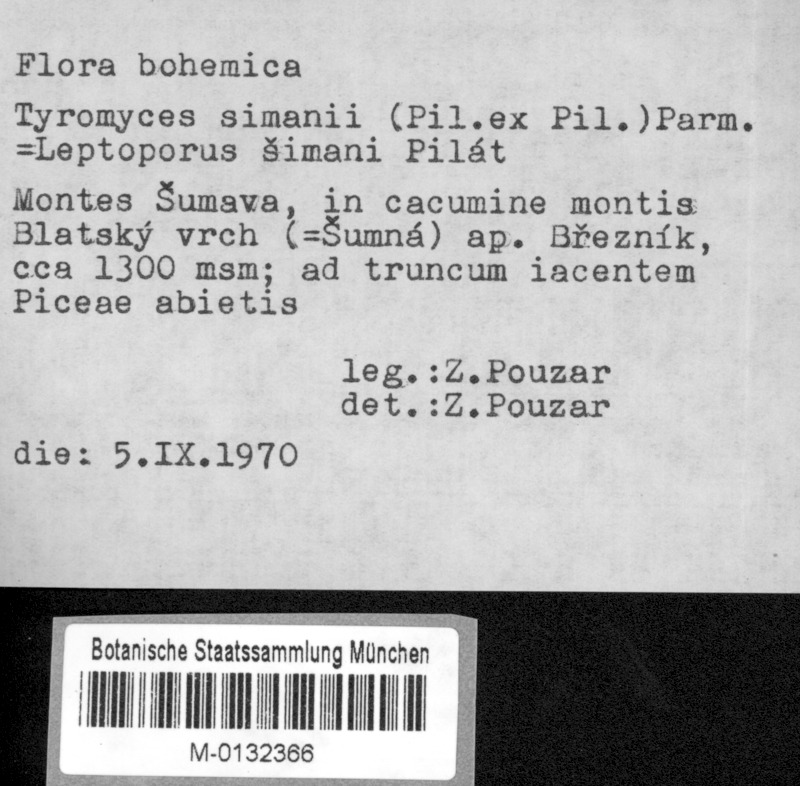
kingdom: Fungi
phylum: Basidiomycota
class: Agaricomycetes
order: Polyporales
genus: Cystidiopostia
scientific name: Cystidiopostia hibernica
